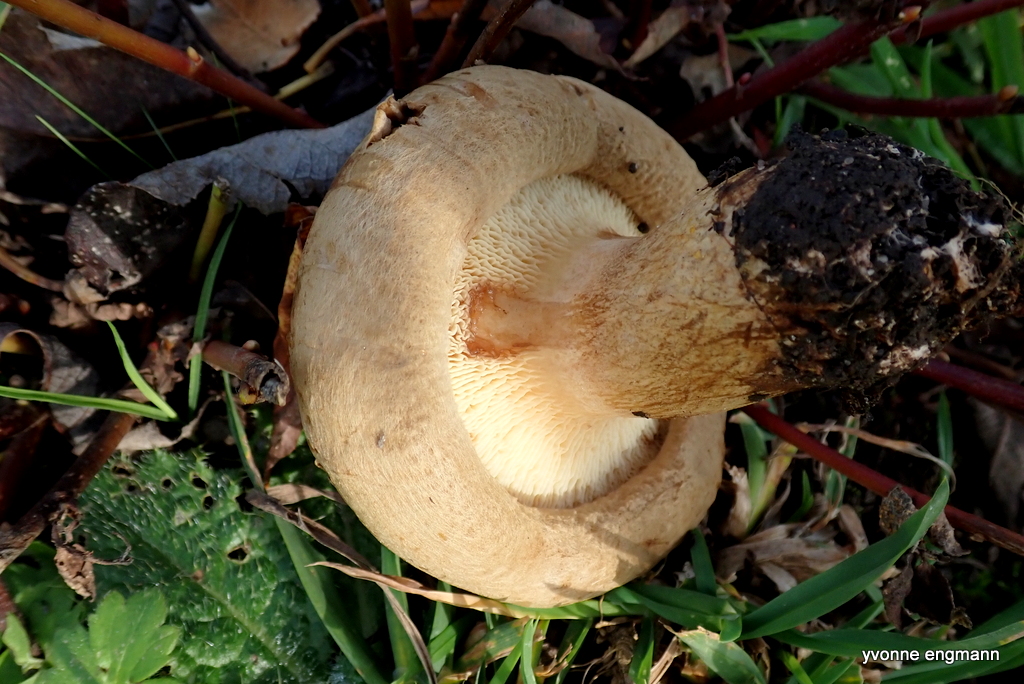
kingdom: Fungi
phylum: Basidiomycota
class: Agaricomycetes
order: Boletales
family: Paxillaceae
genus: Paxillus
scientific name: Paxillus involutus
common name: almindelig netbladhat
